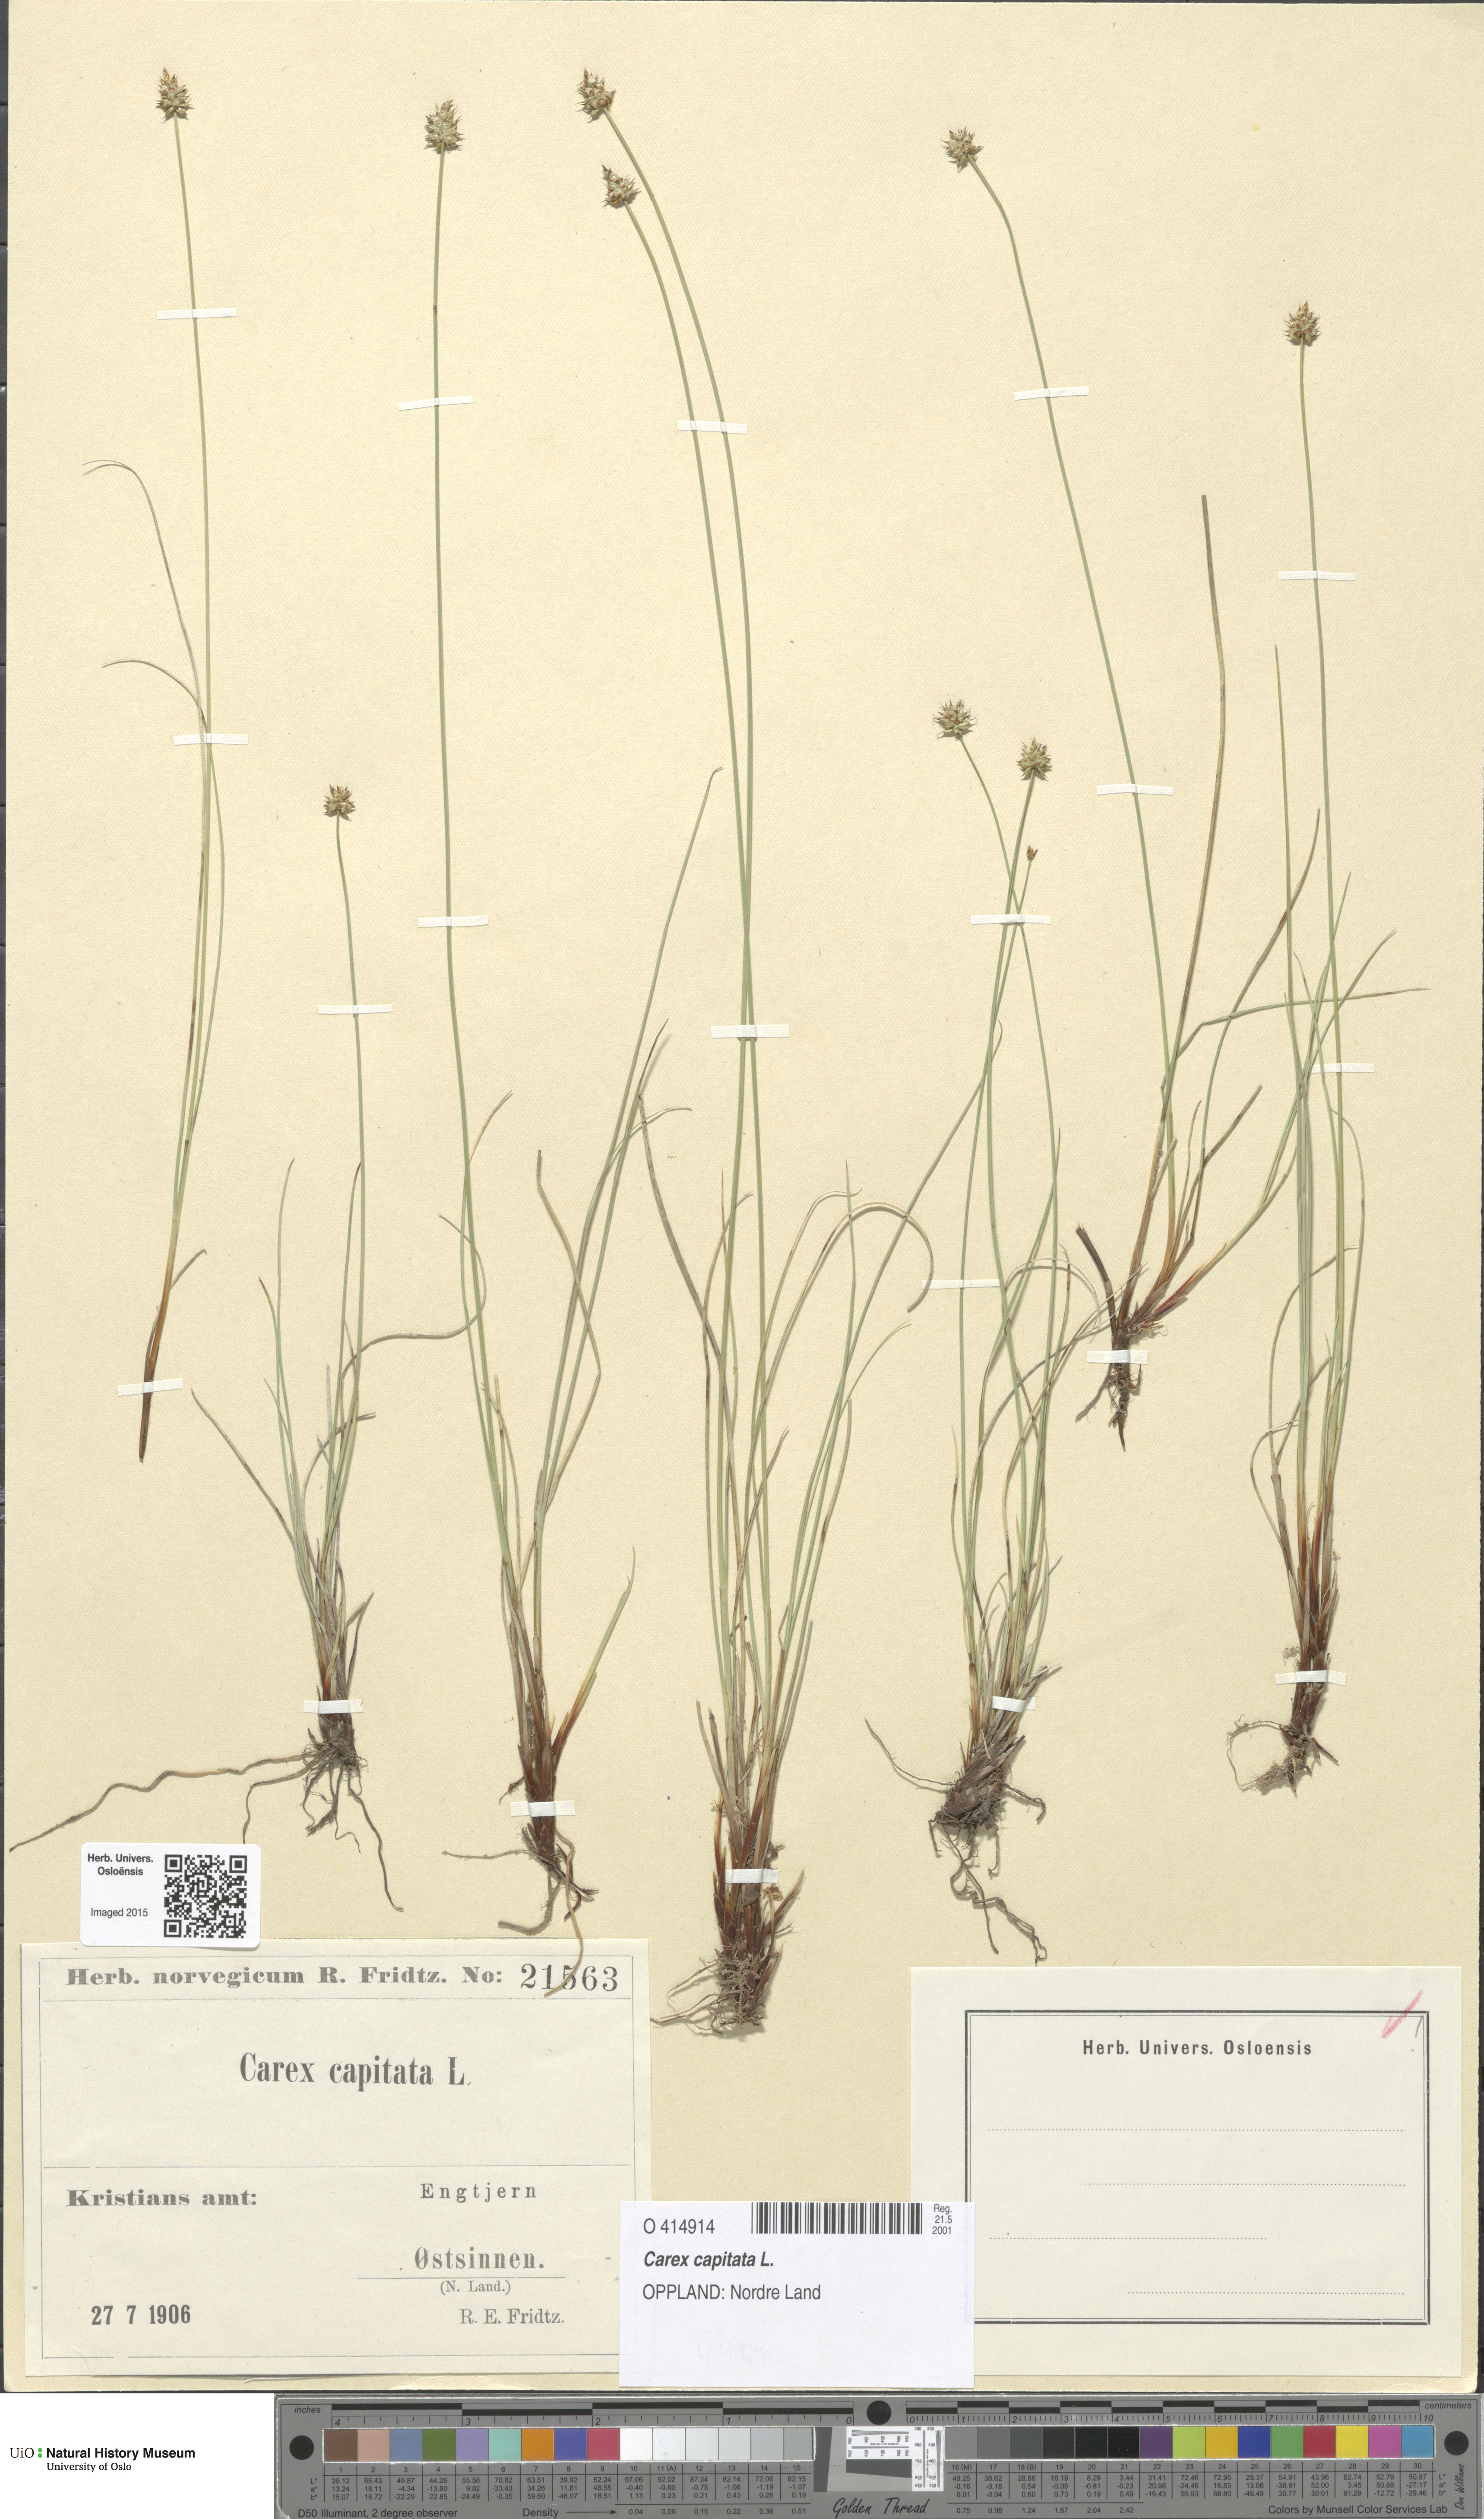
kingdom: Plantae
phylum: Tracheophyta
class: Liliopsida
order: Poales
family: Cyperaceae
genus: Carex
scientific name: Carex capitata
